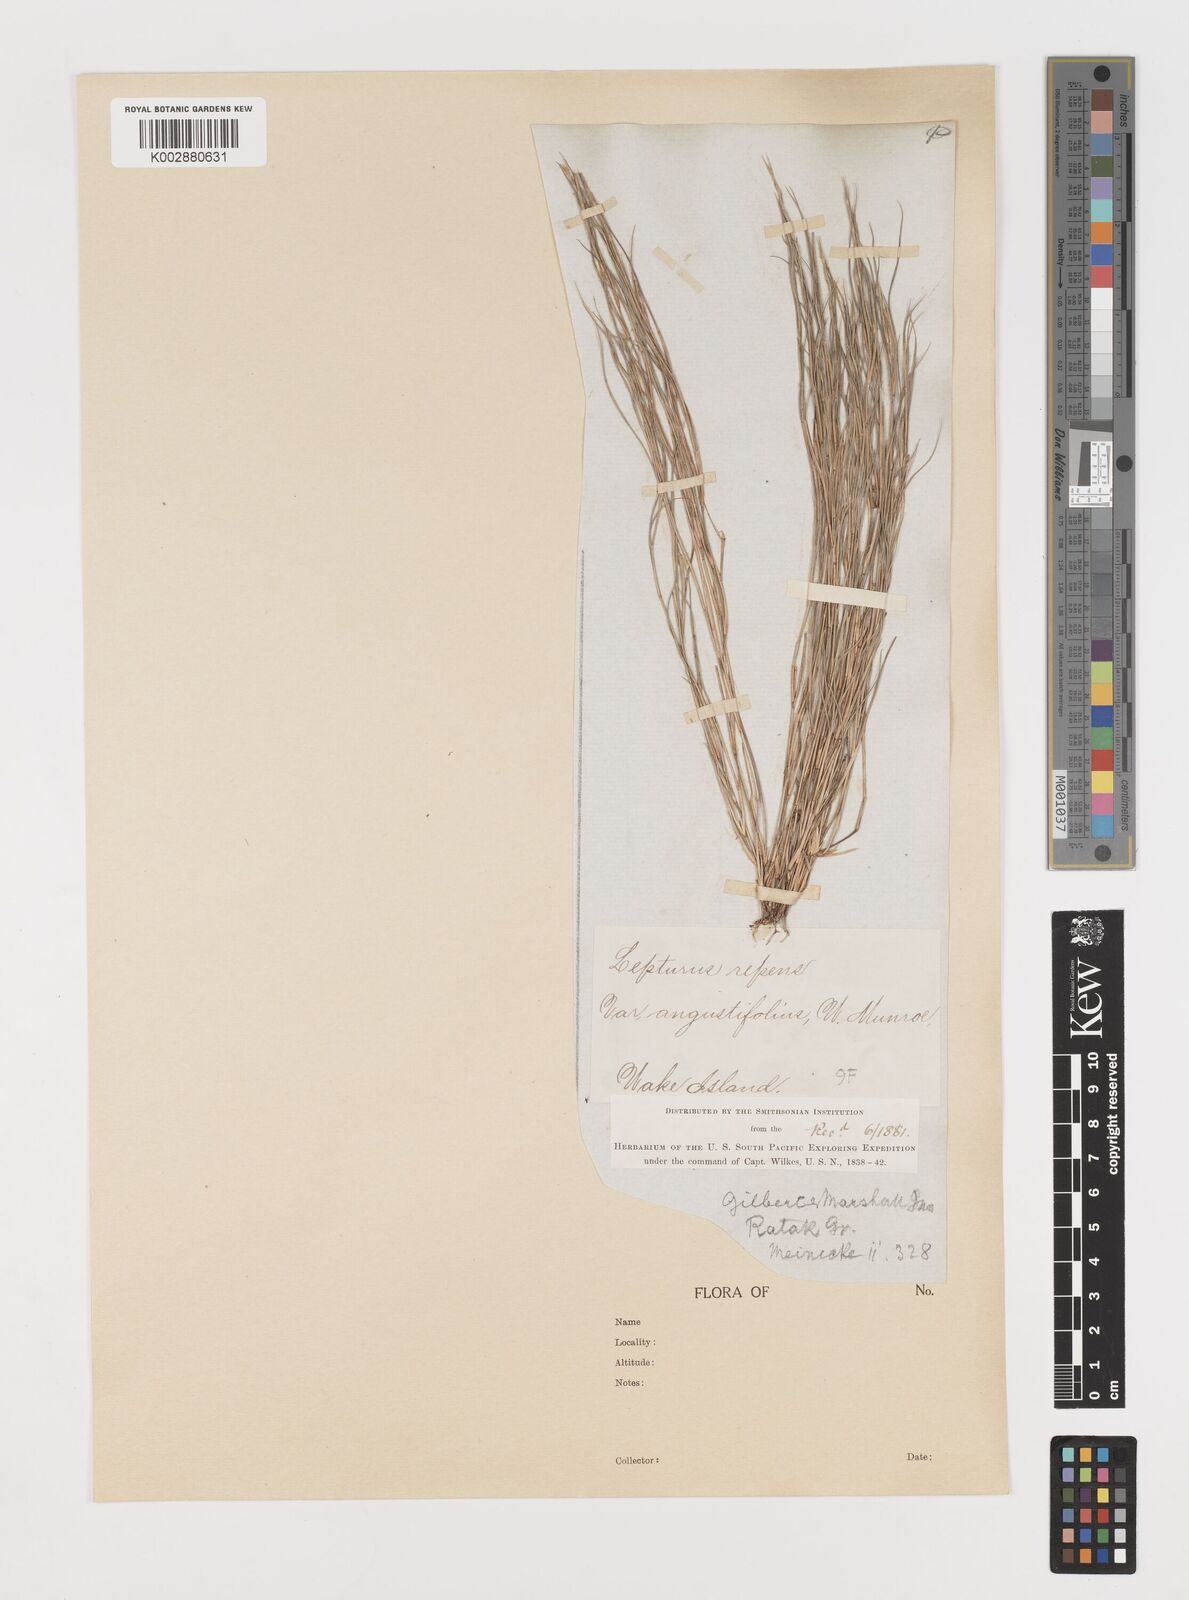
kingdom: Plantae
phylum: Tracheophyta
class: Liliopsida
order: Poales
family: Poaceae
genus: Lepturus
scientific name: Lepturus repens
